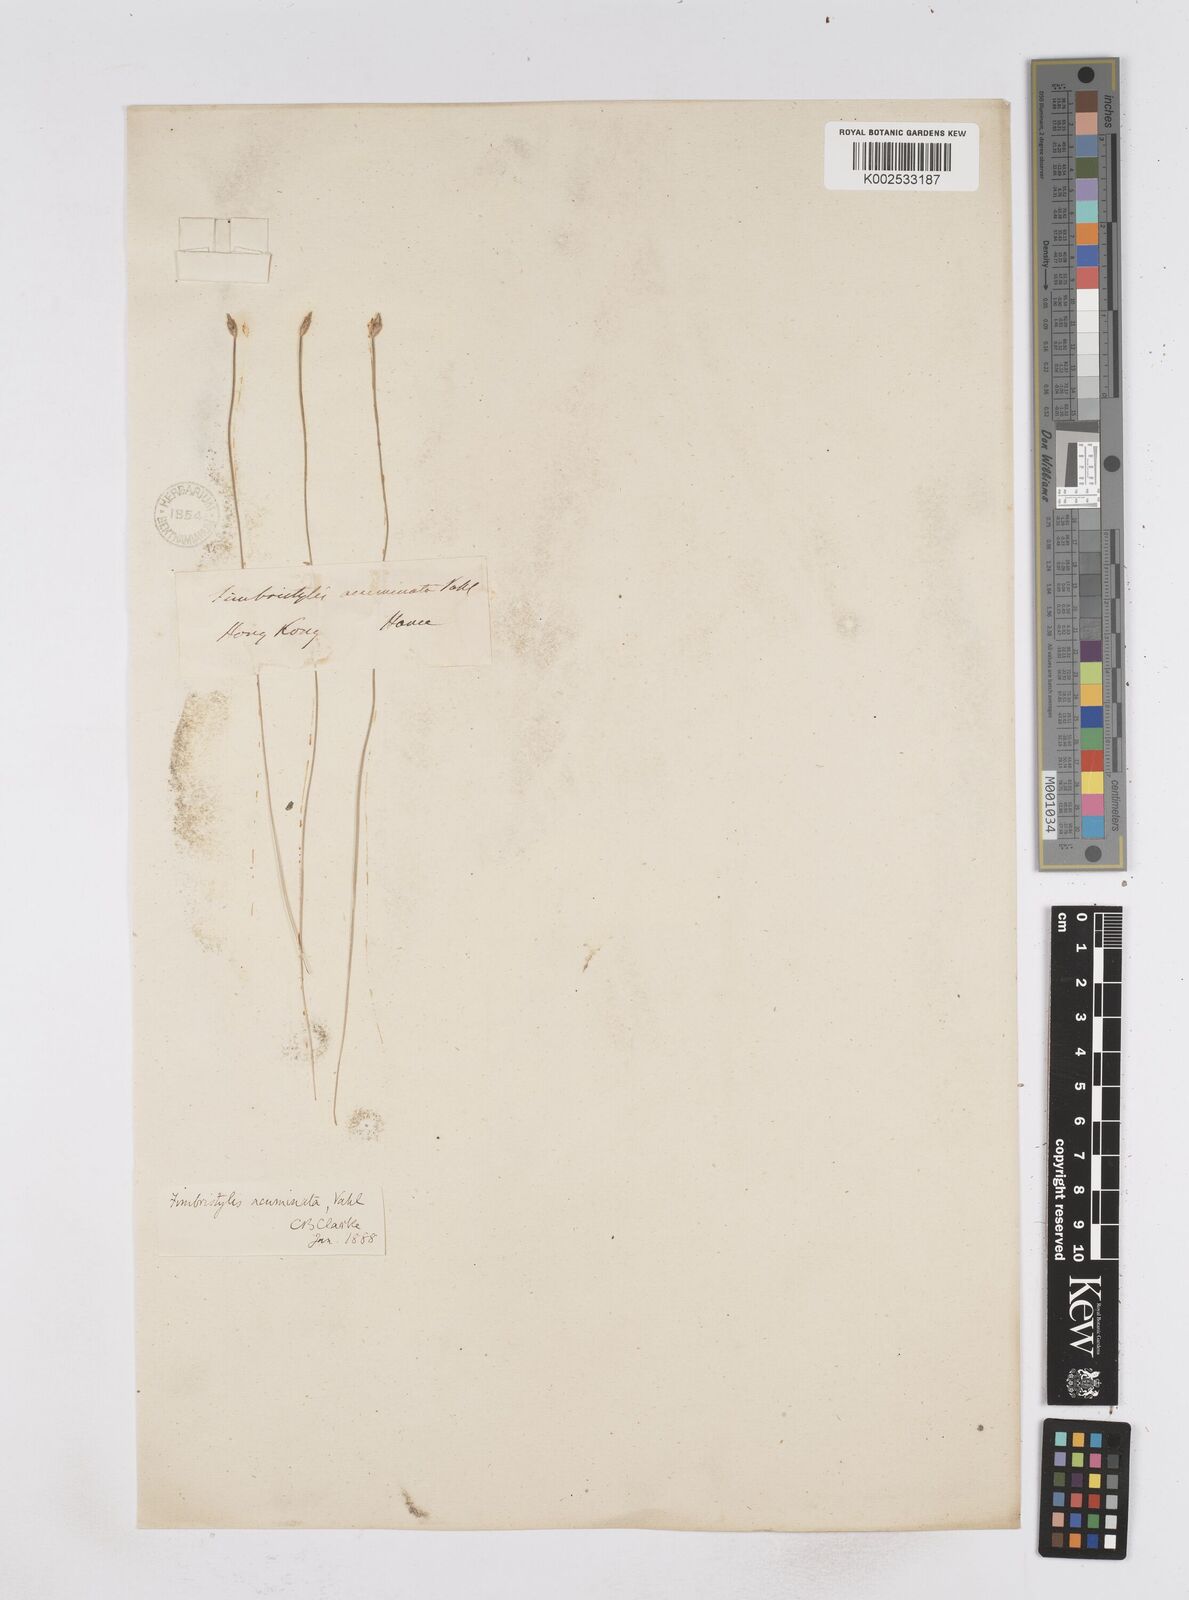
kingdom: Plantae
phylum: Tracheophyta
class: Liliopsida
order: Poales
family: Cyperaceae
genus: Fimbristylis
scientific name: Fimbristylis acuminata
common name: Pointed fimbristylis
